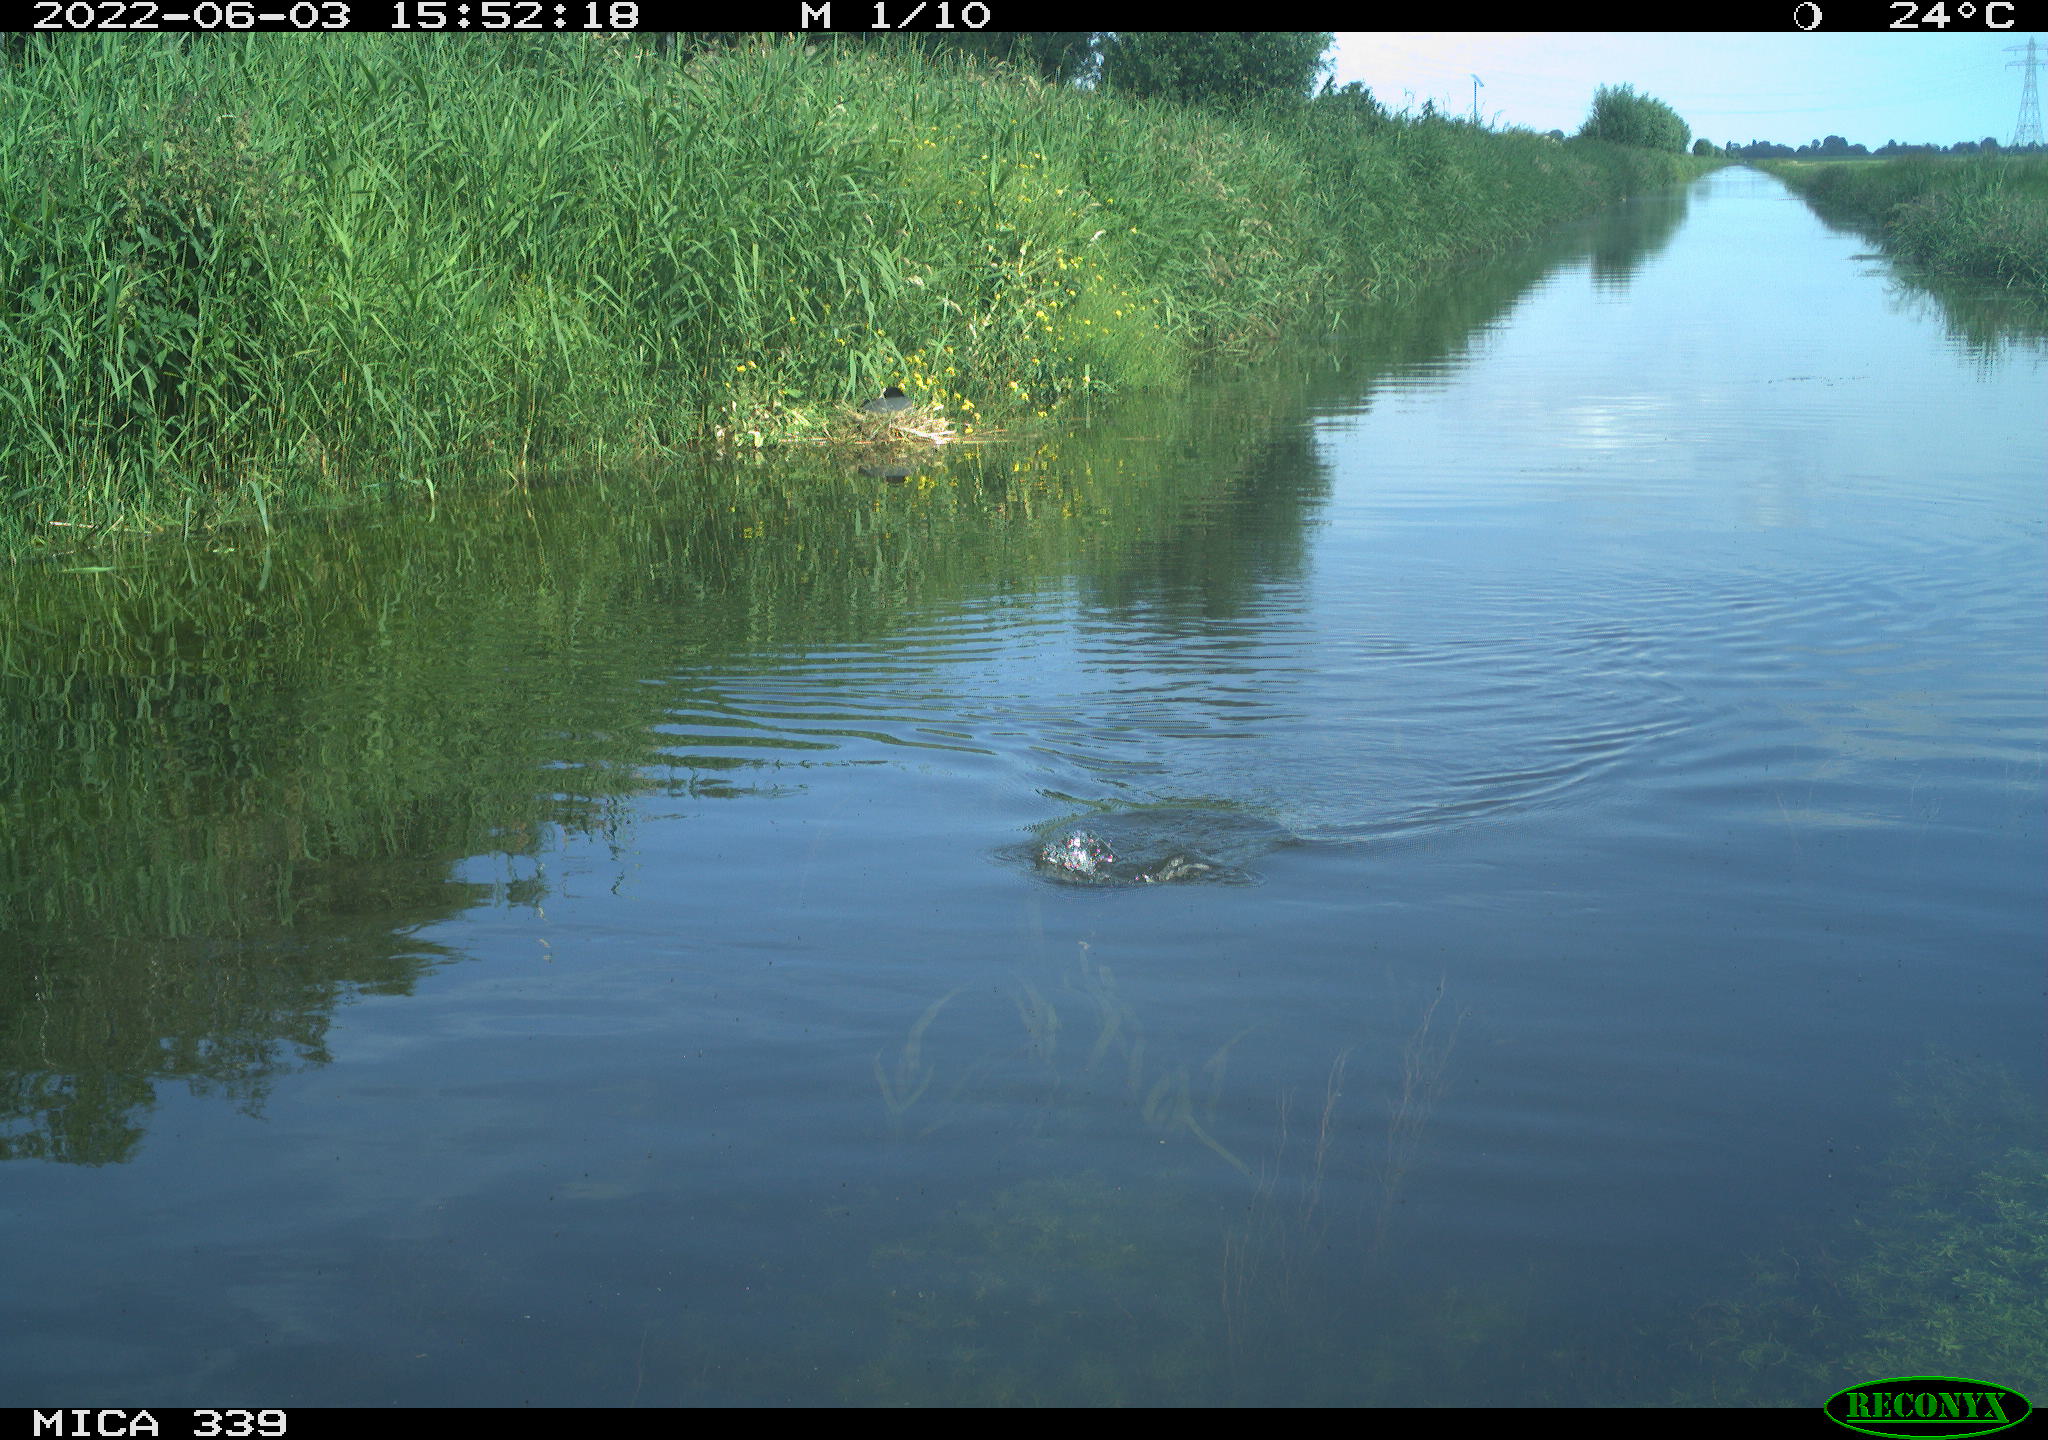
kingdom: Animalia
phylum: Chordata
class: Aves
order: Gruiformes
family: Rallidae
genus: Fulica
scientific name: Fulica atra
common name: Eurasian coot
